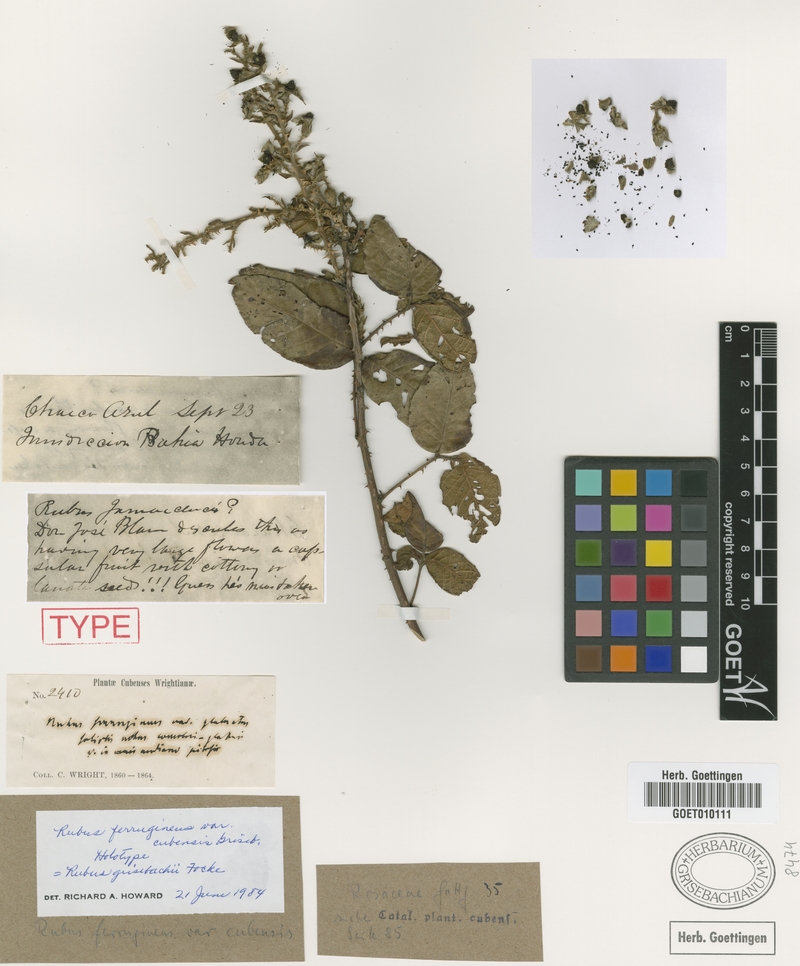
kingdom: Plantae
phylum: Tracheophyta
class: Magnoliopsida
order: Rosales
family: Rosaceae
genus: Rubus
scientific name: Rubus durus
